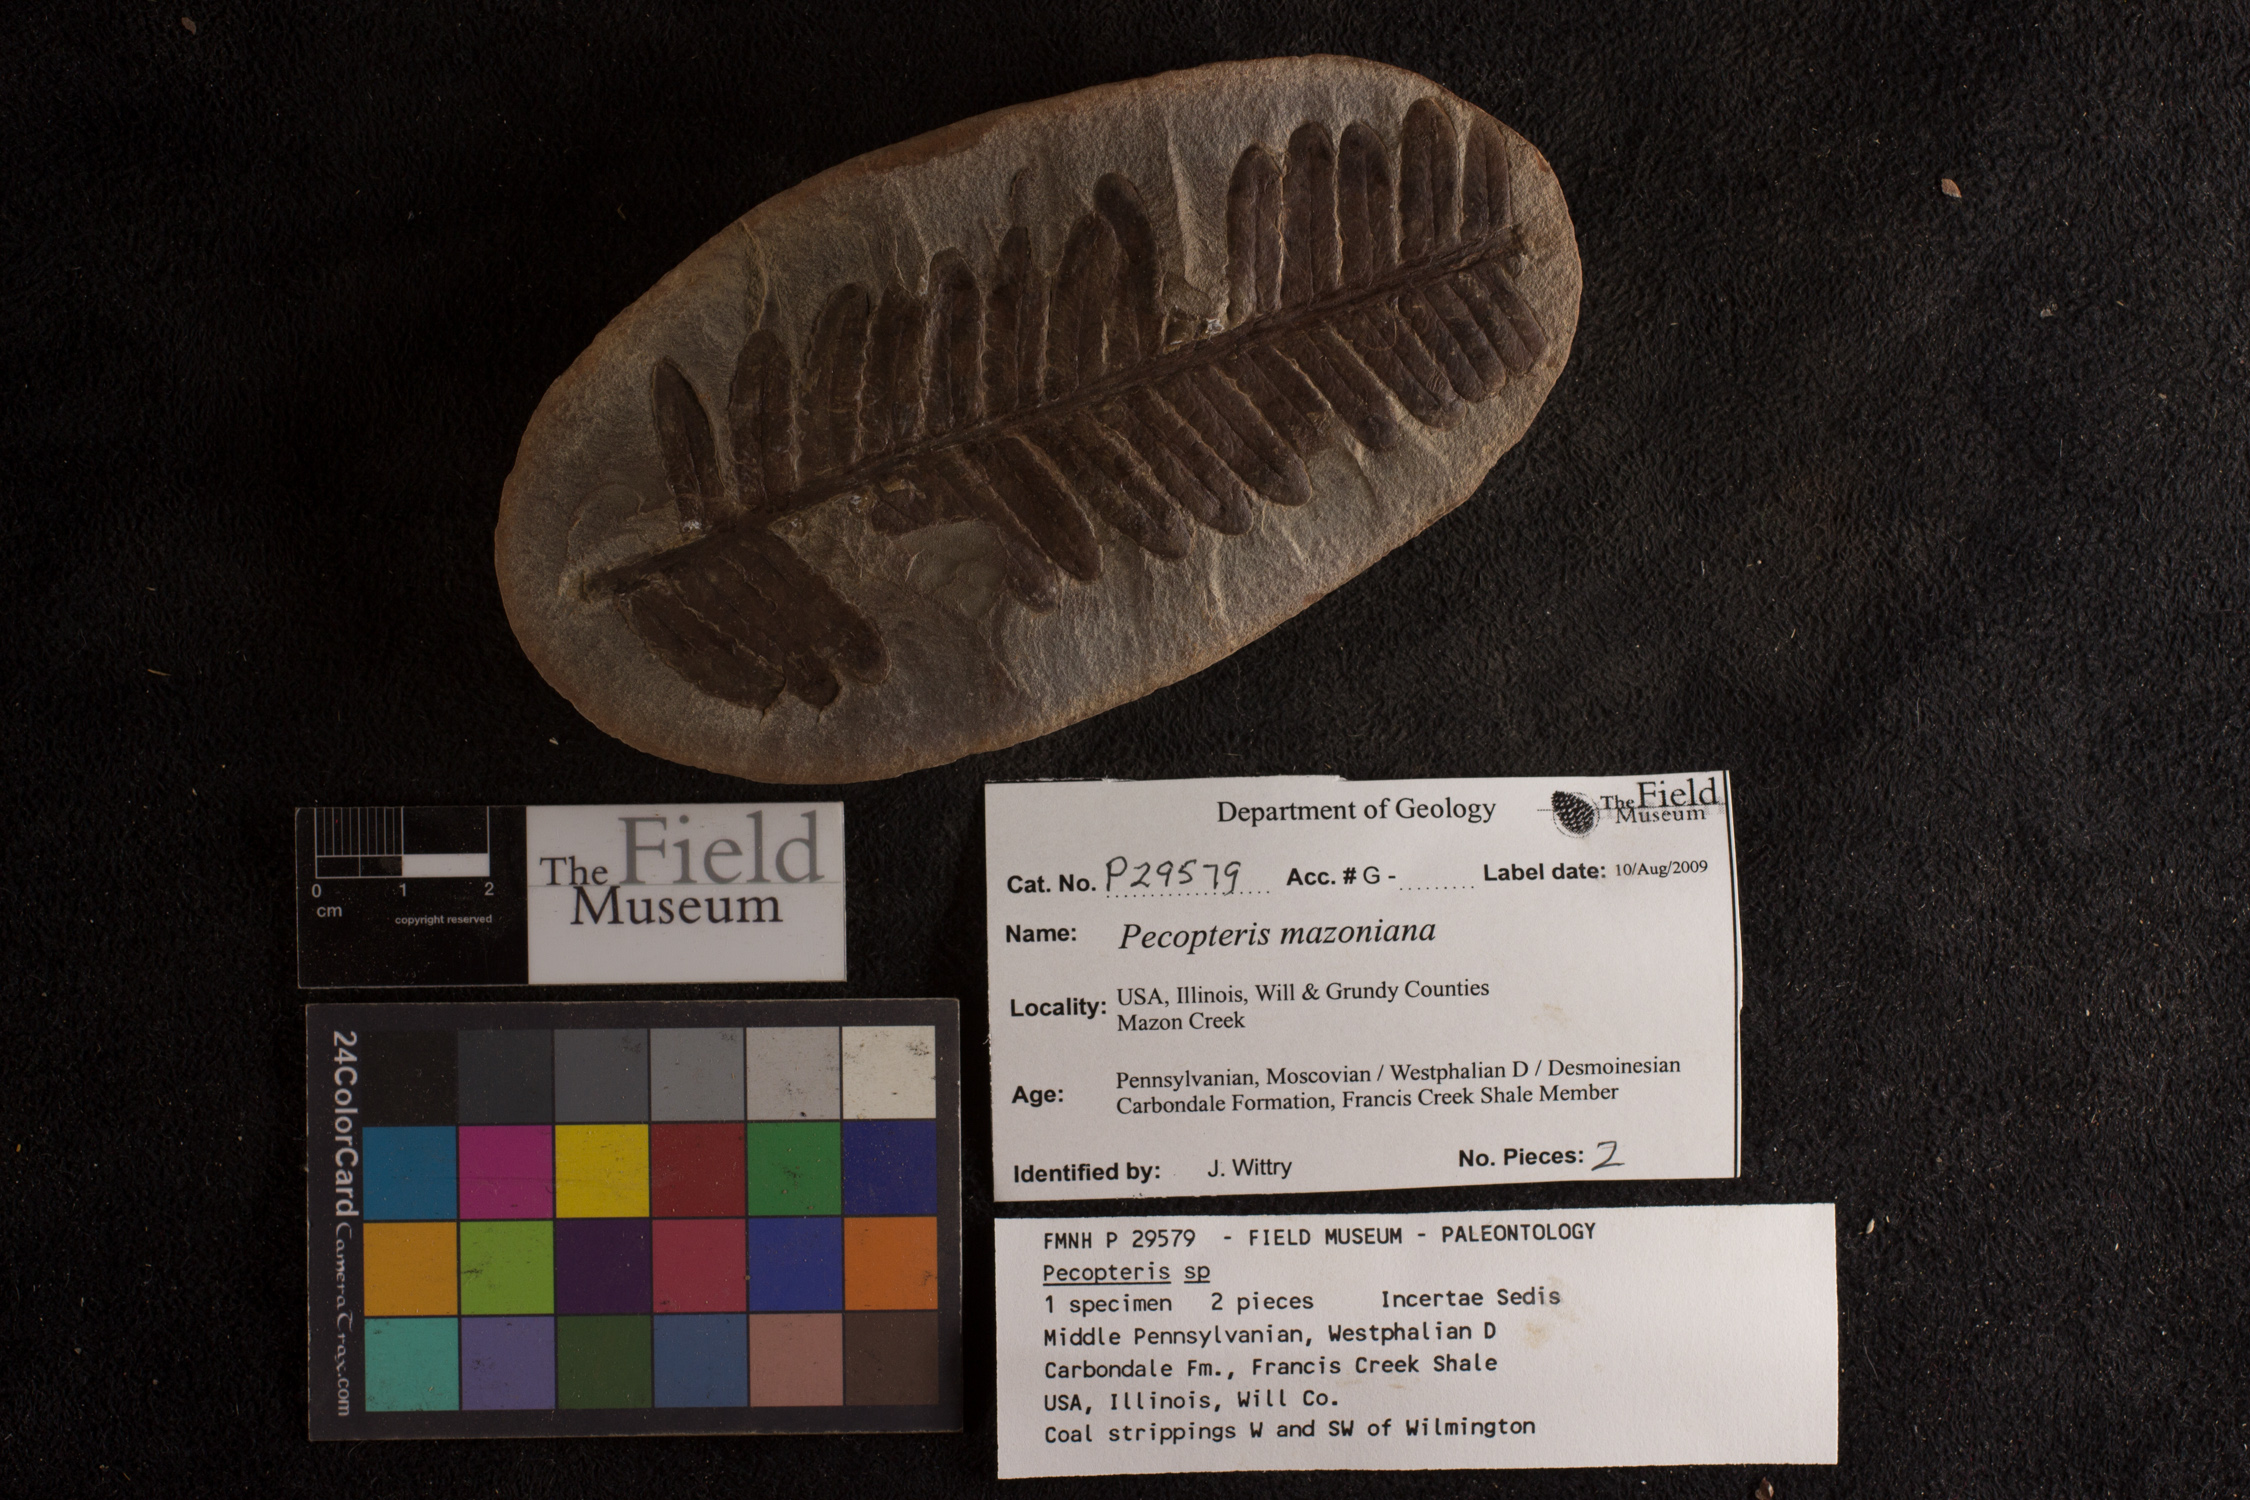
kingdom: Plantae
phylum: Tracheophyta
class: Polypodiopsida
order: Marattiales
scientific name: Marattiales
